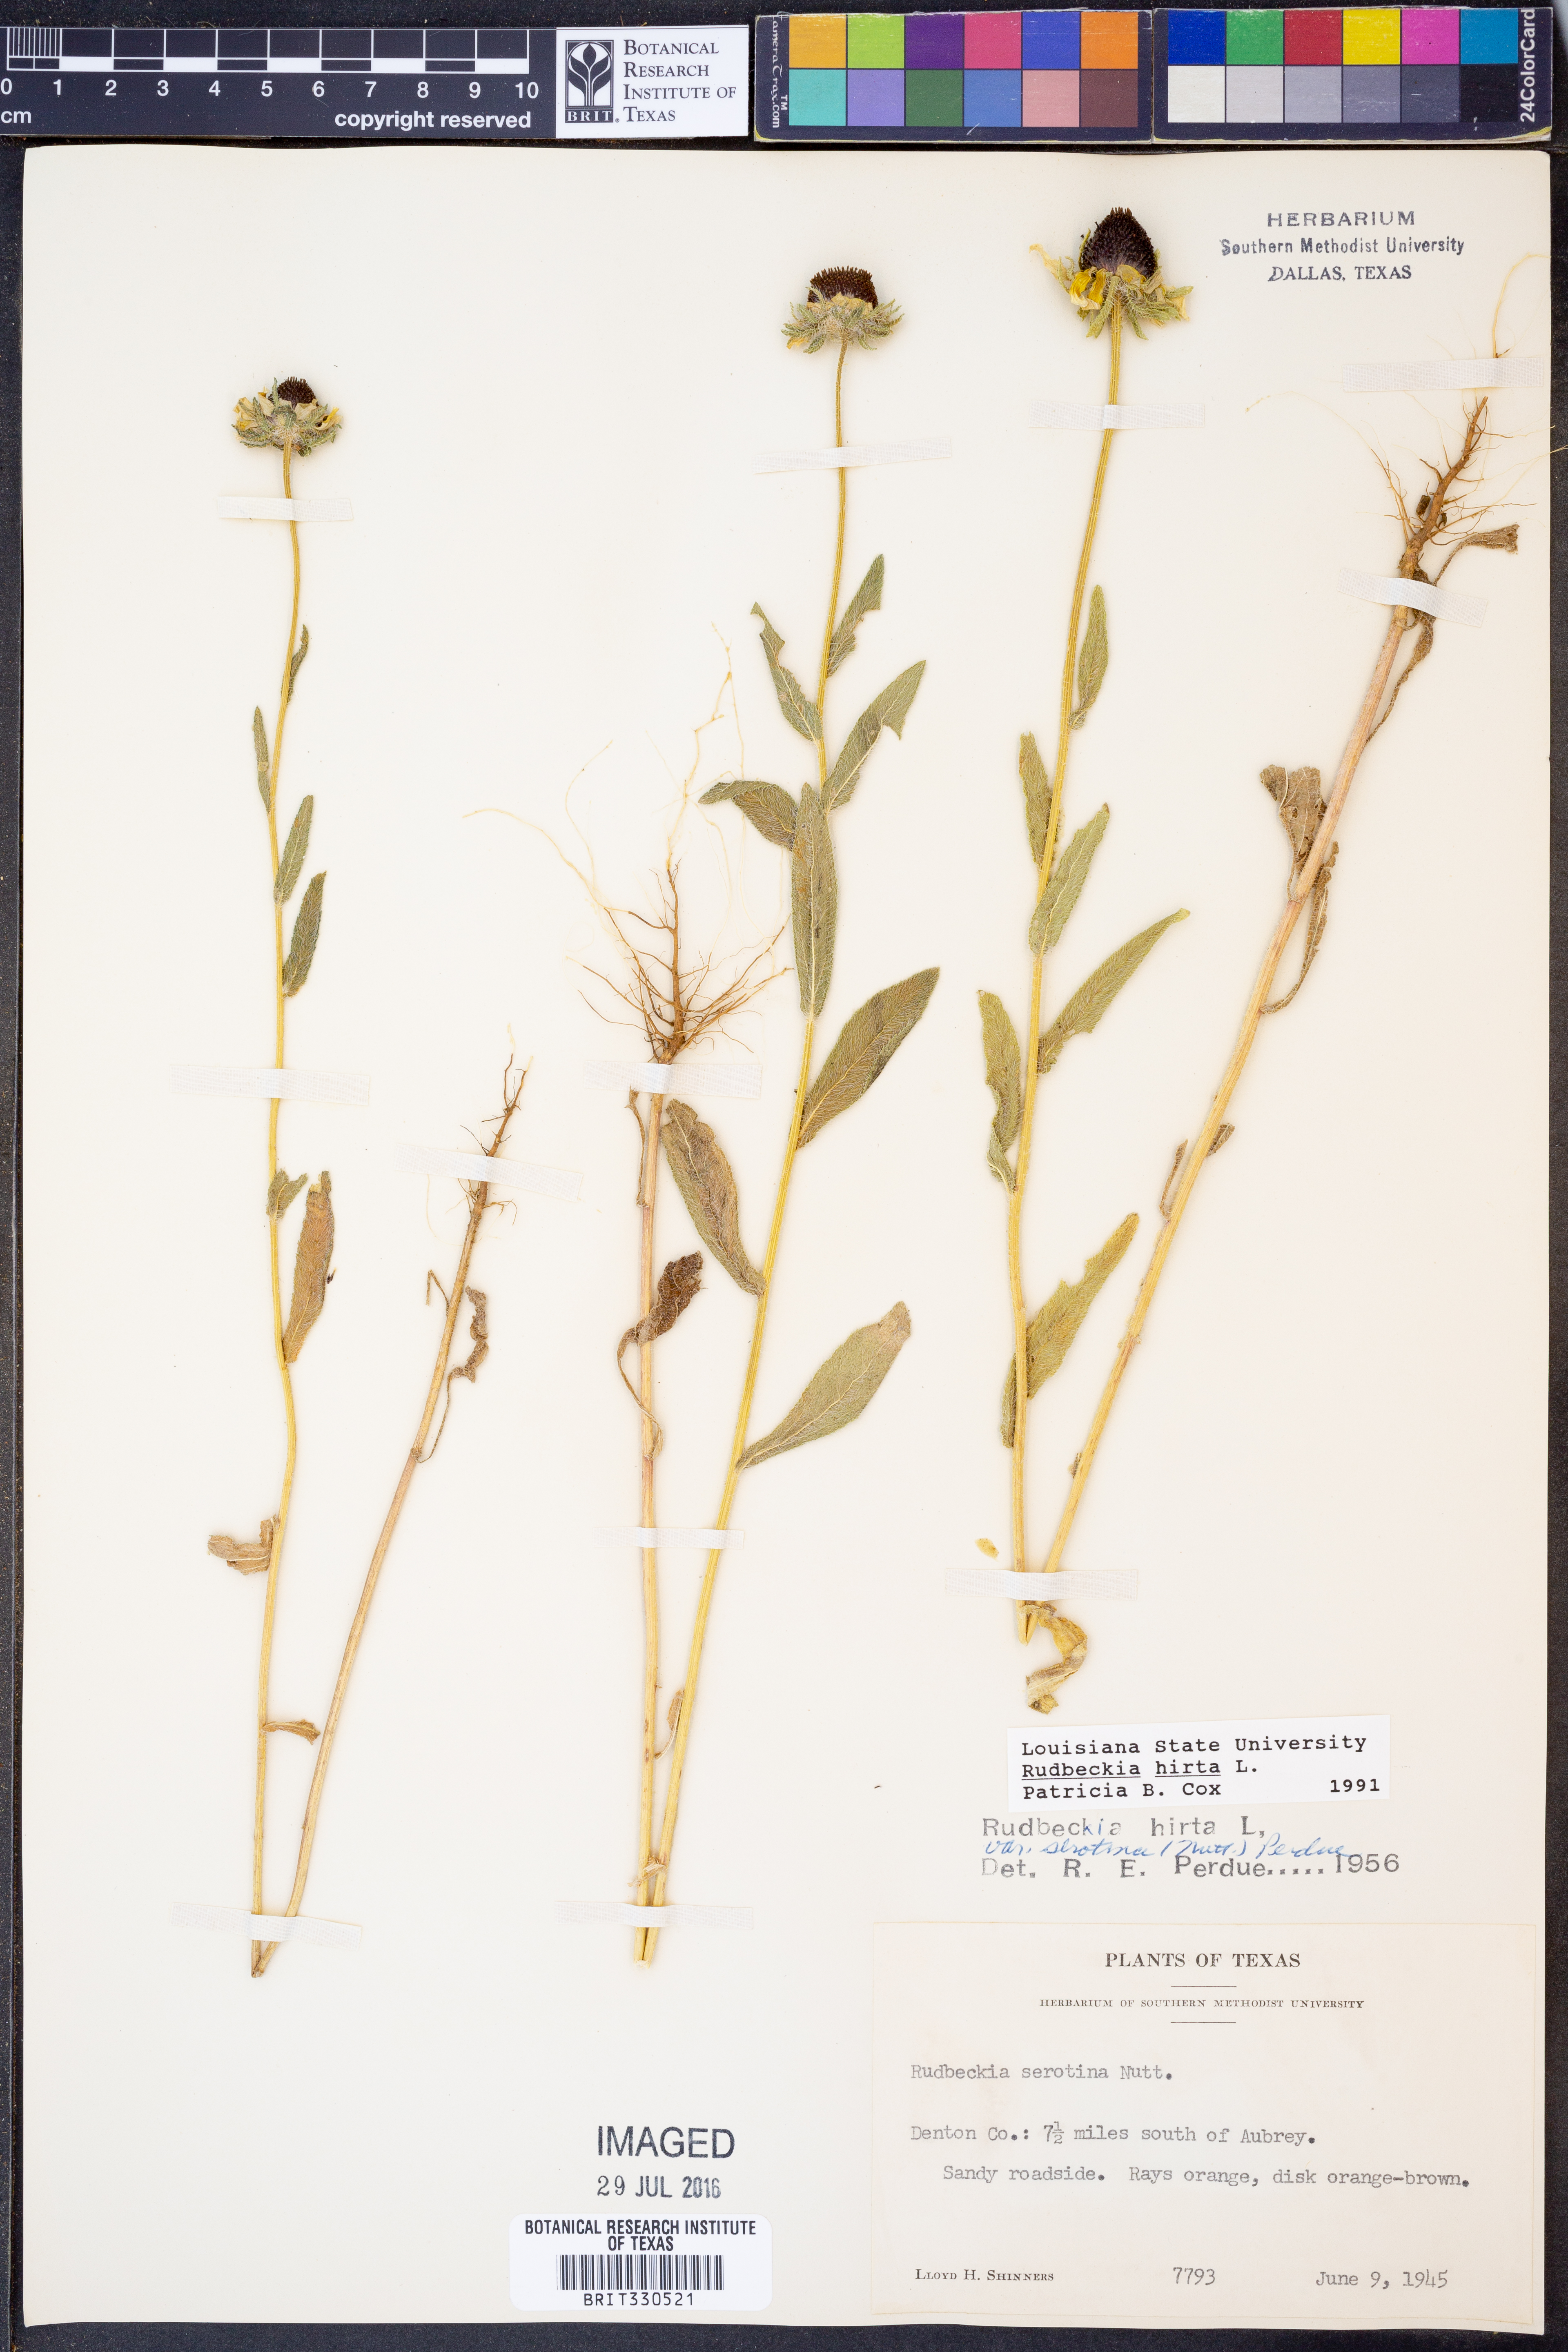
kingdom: Plantae
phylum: Tracheophyta
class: Magnoliopsida
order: Asterales
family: Asteraceae
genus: Rudbeckia
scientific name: Rudbeckia hirta
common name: Black-eyed-susan
